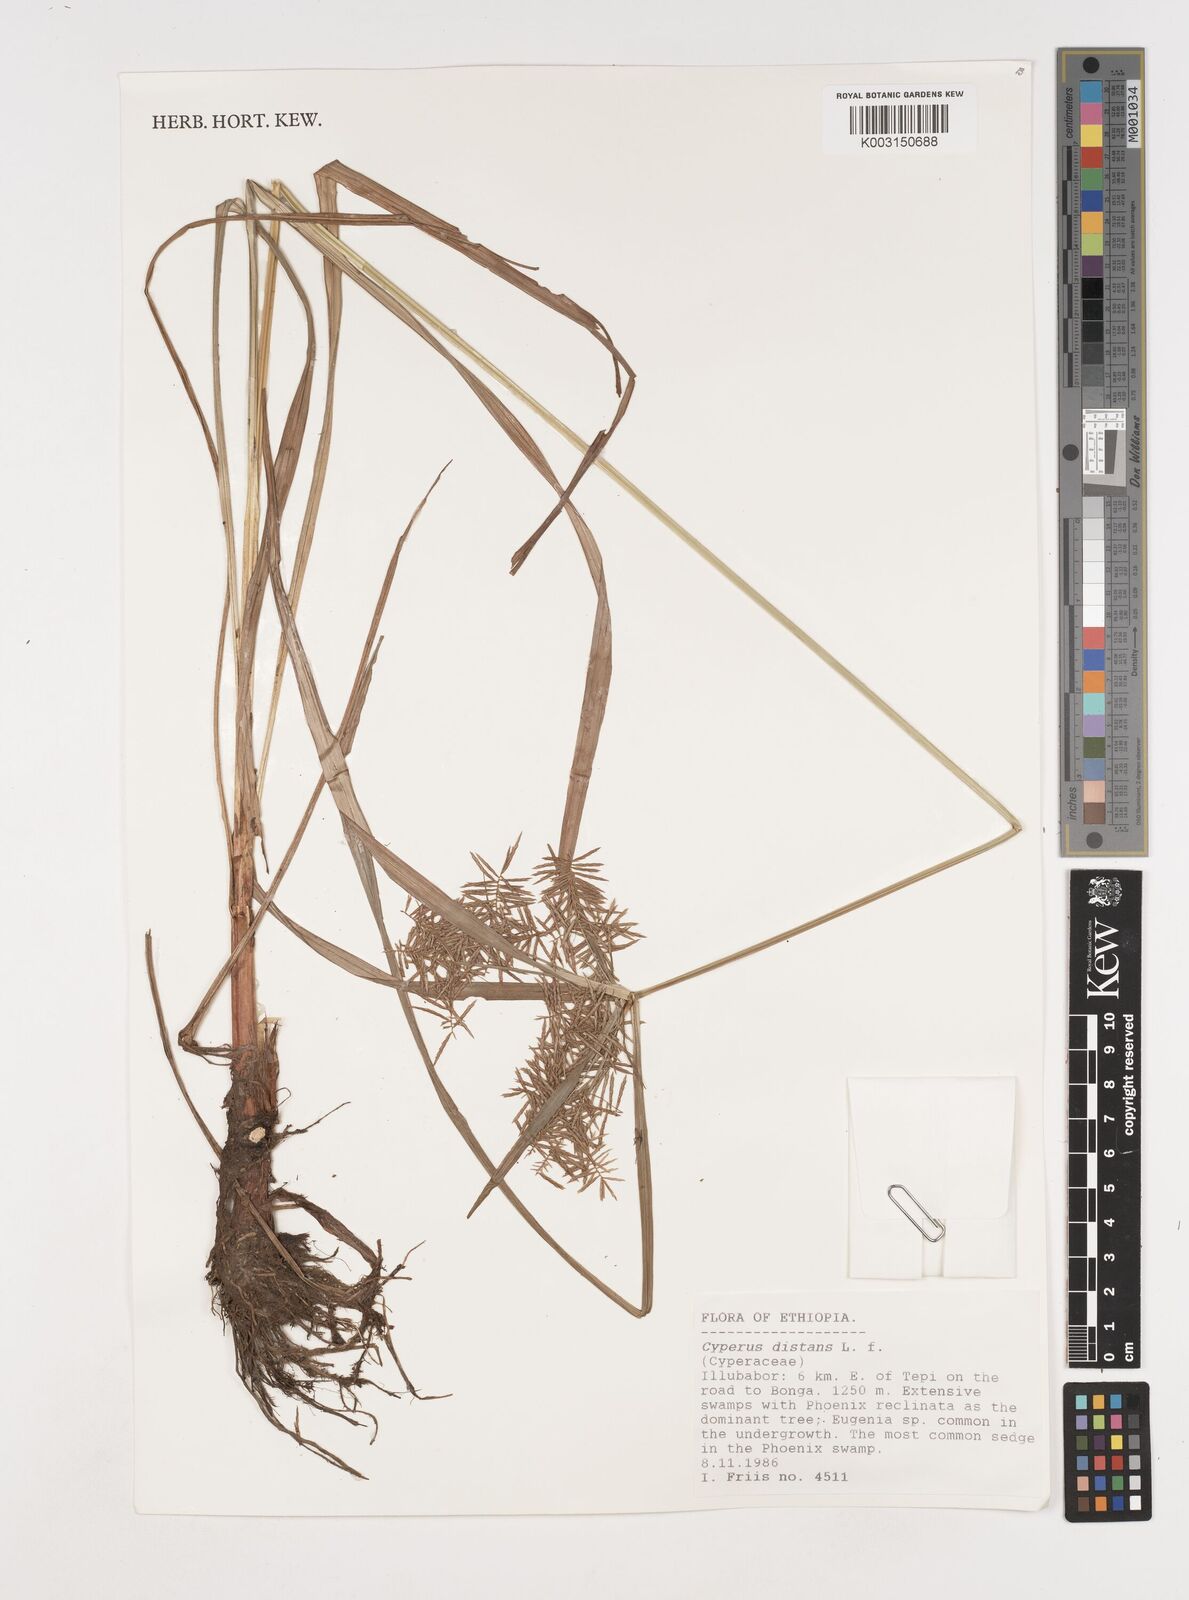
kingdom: Plantae
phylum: Tracheophyta
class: Liliopsida
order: Poales
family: Cyperaceae
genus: Cyperus
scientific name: Cyperus distans
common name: Slender cyperus
